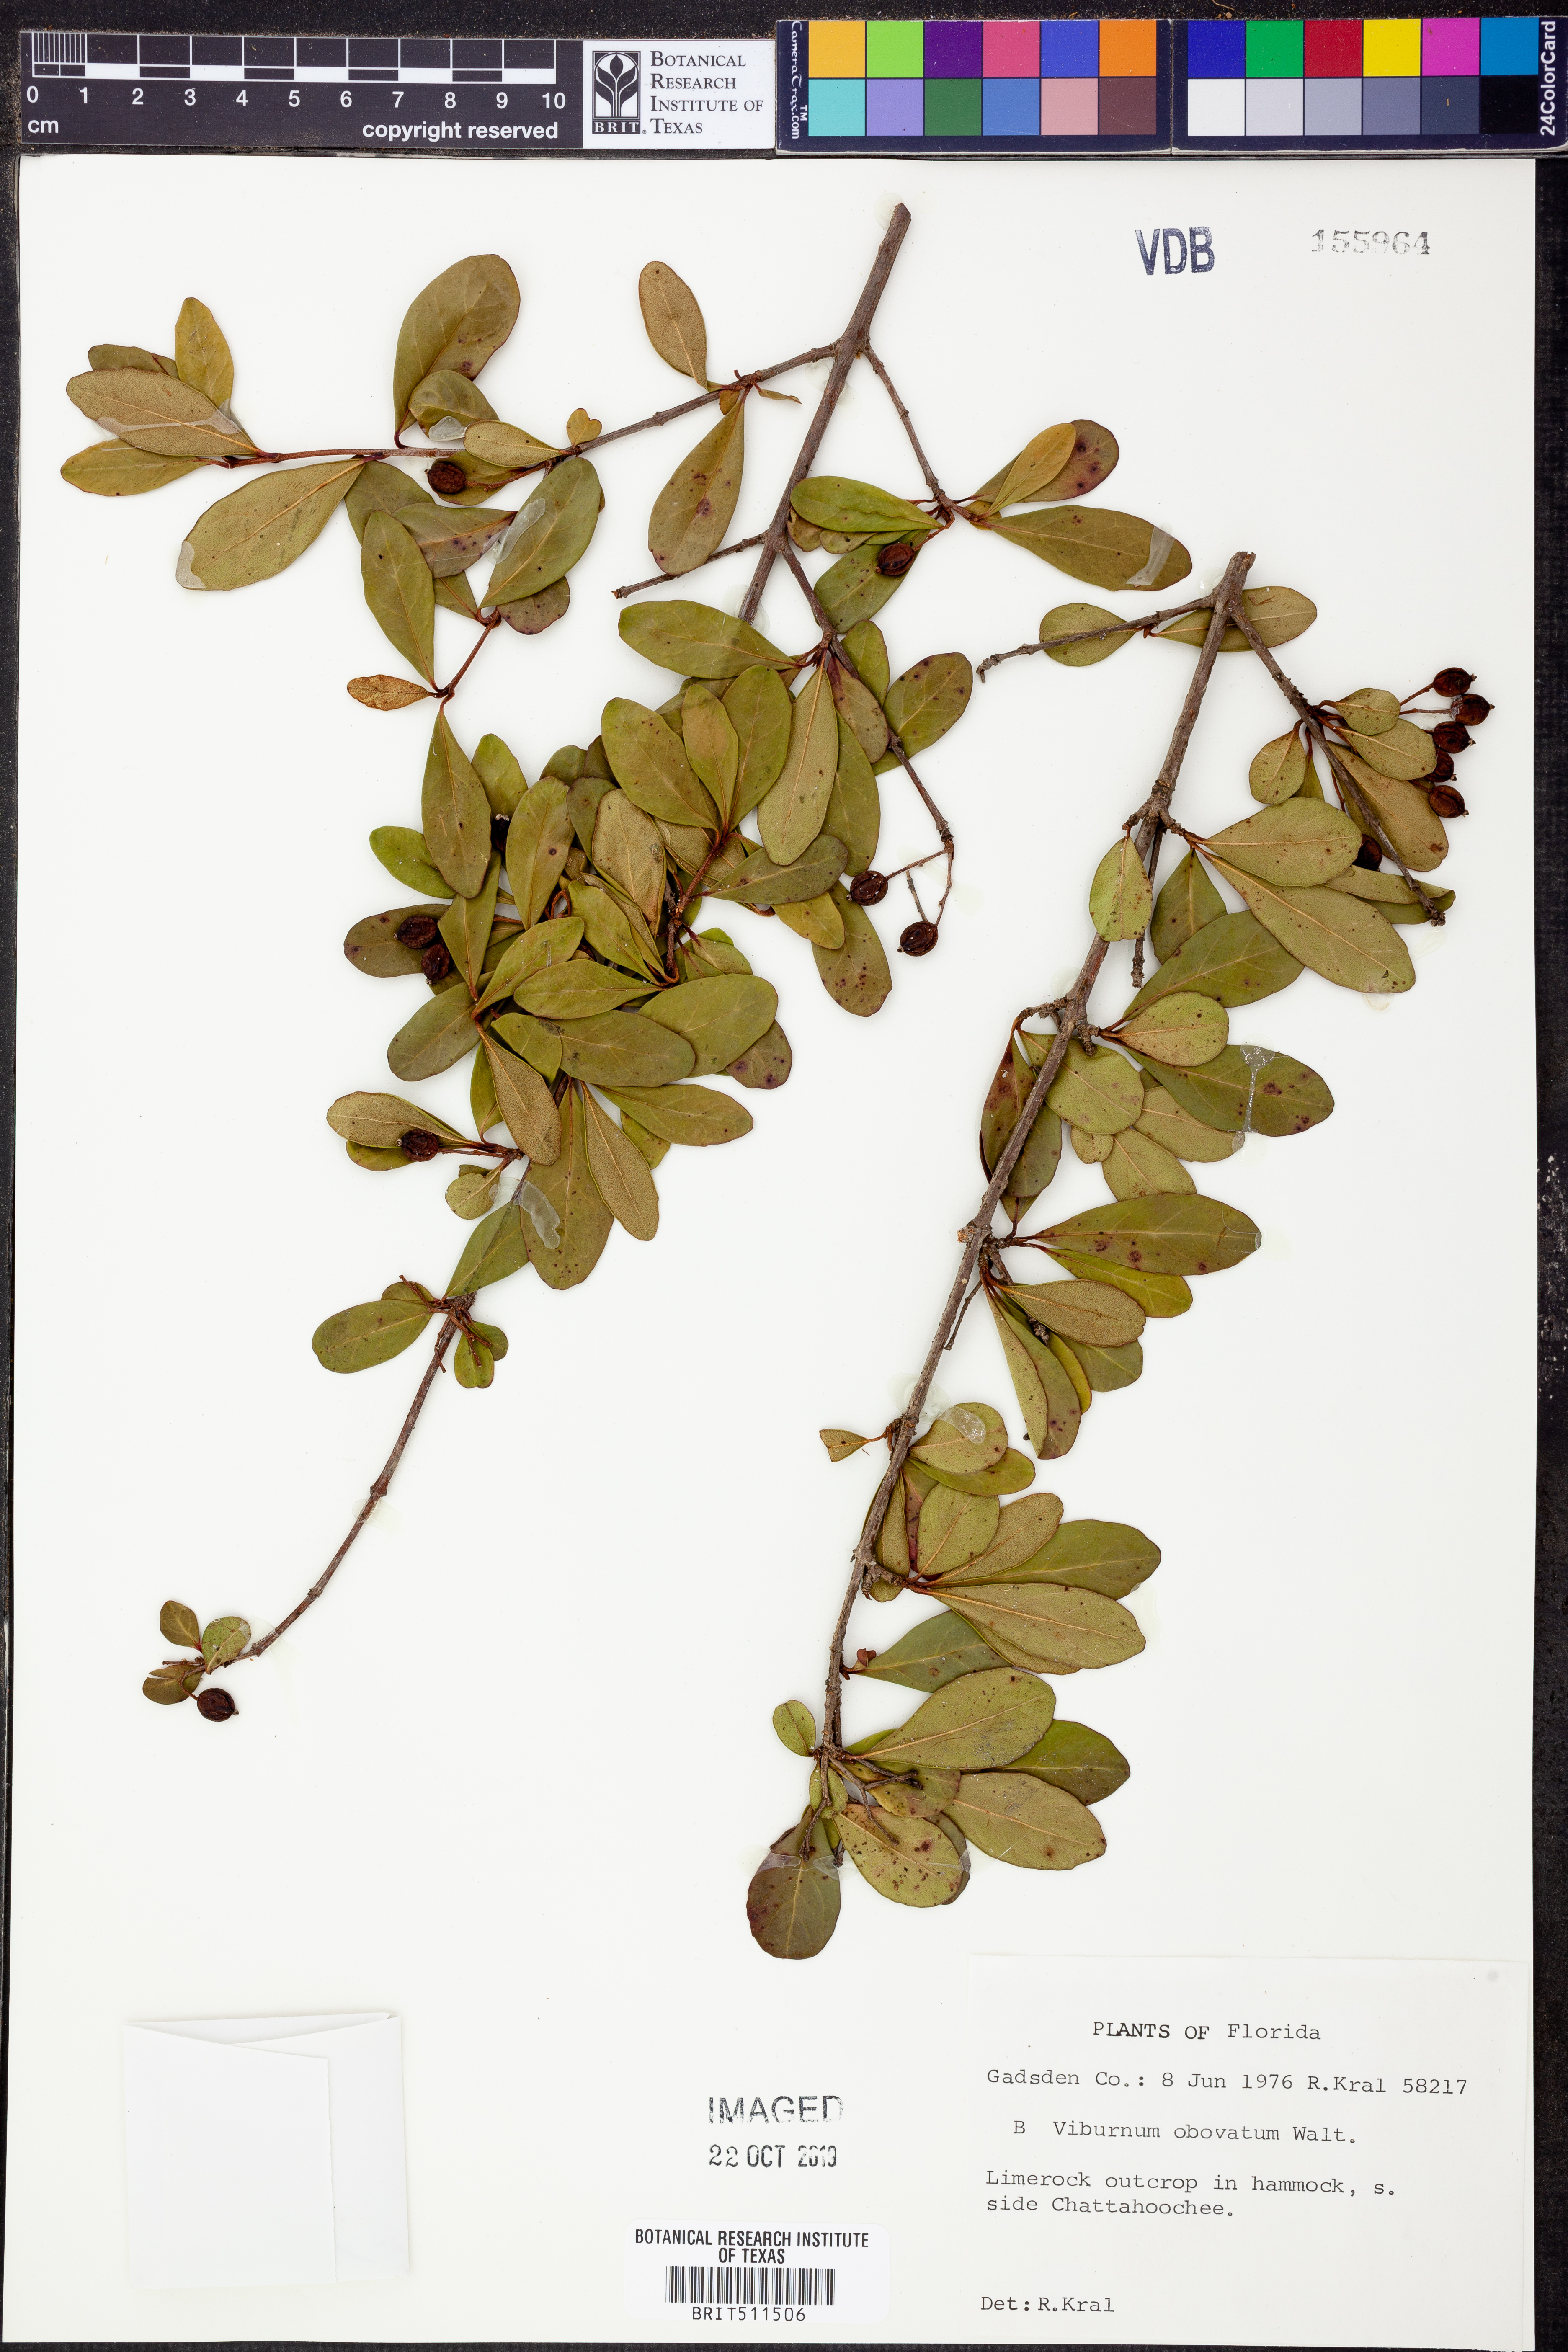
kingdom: Plantae
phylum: Tracheophyta
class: Magnoliopsida
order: Dipsacales
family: Viburnaceae
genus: Viburnum
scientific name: Viburnum obovatum
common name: Walter's viburnum
